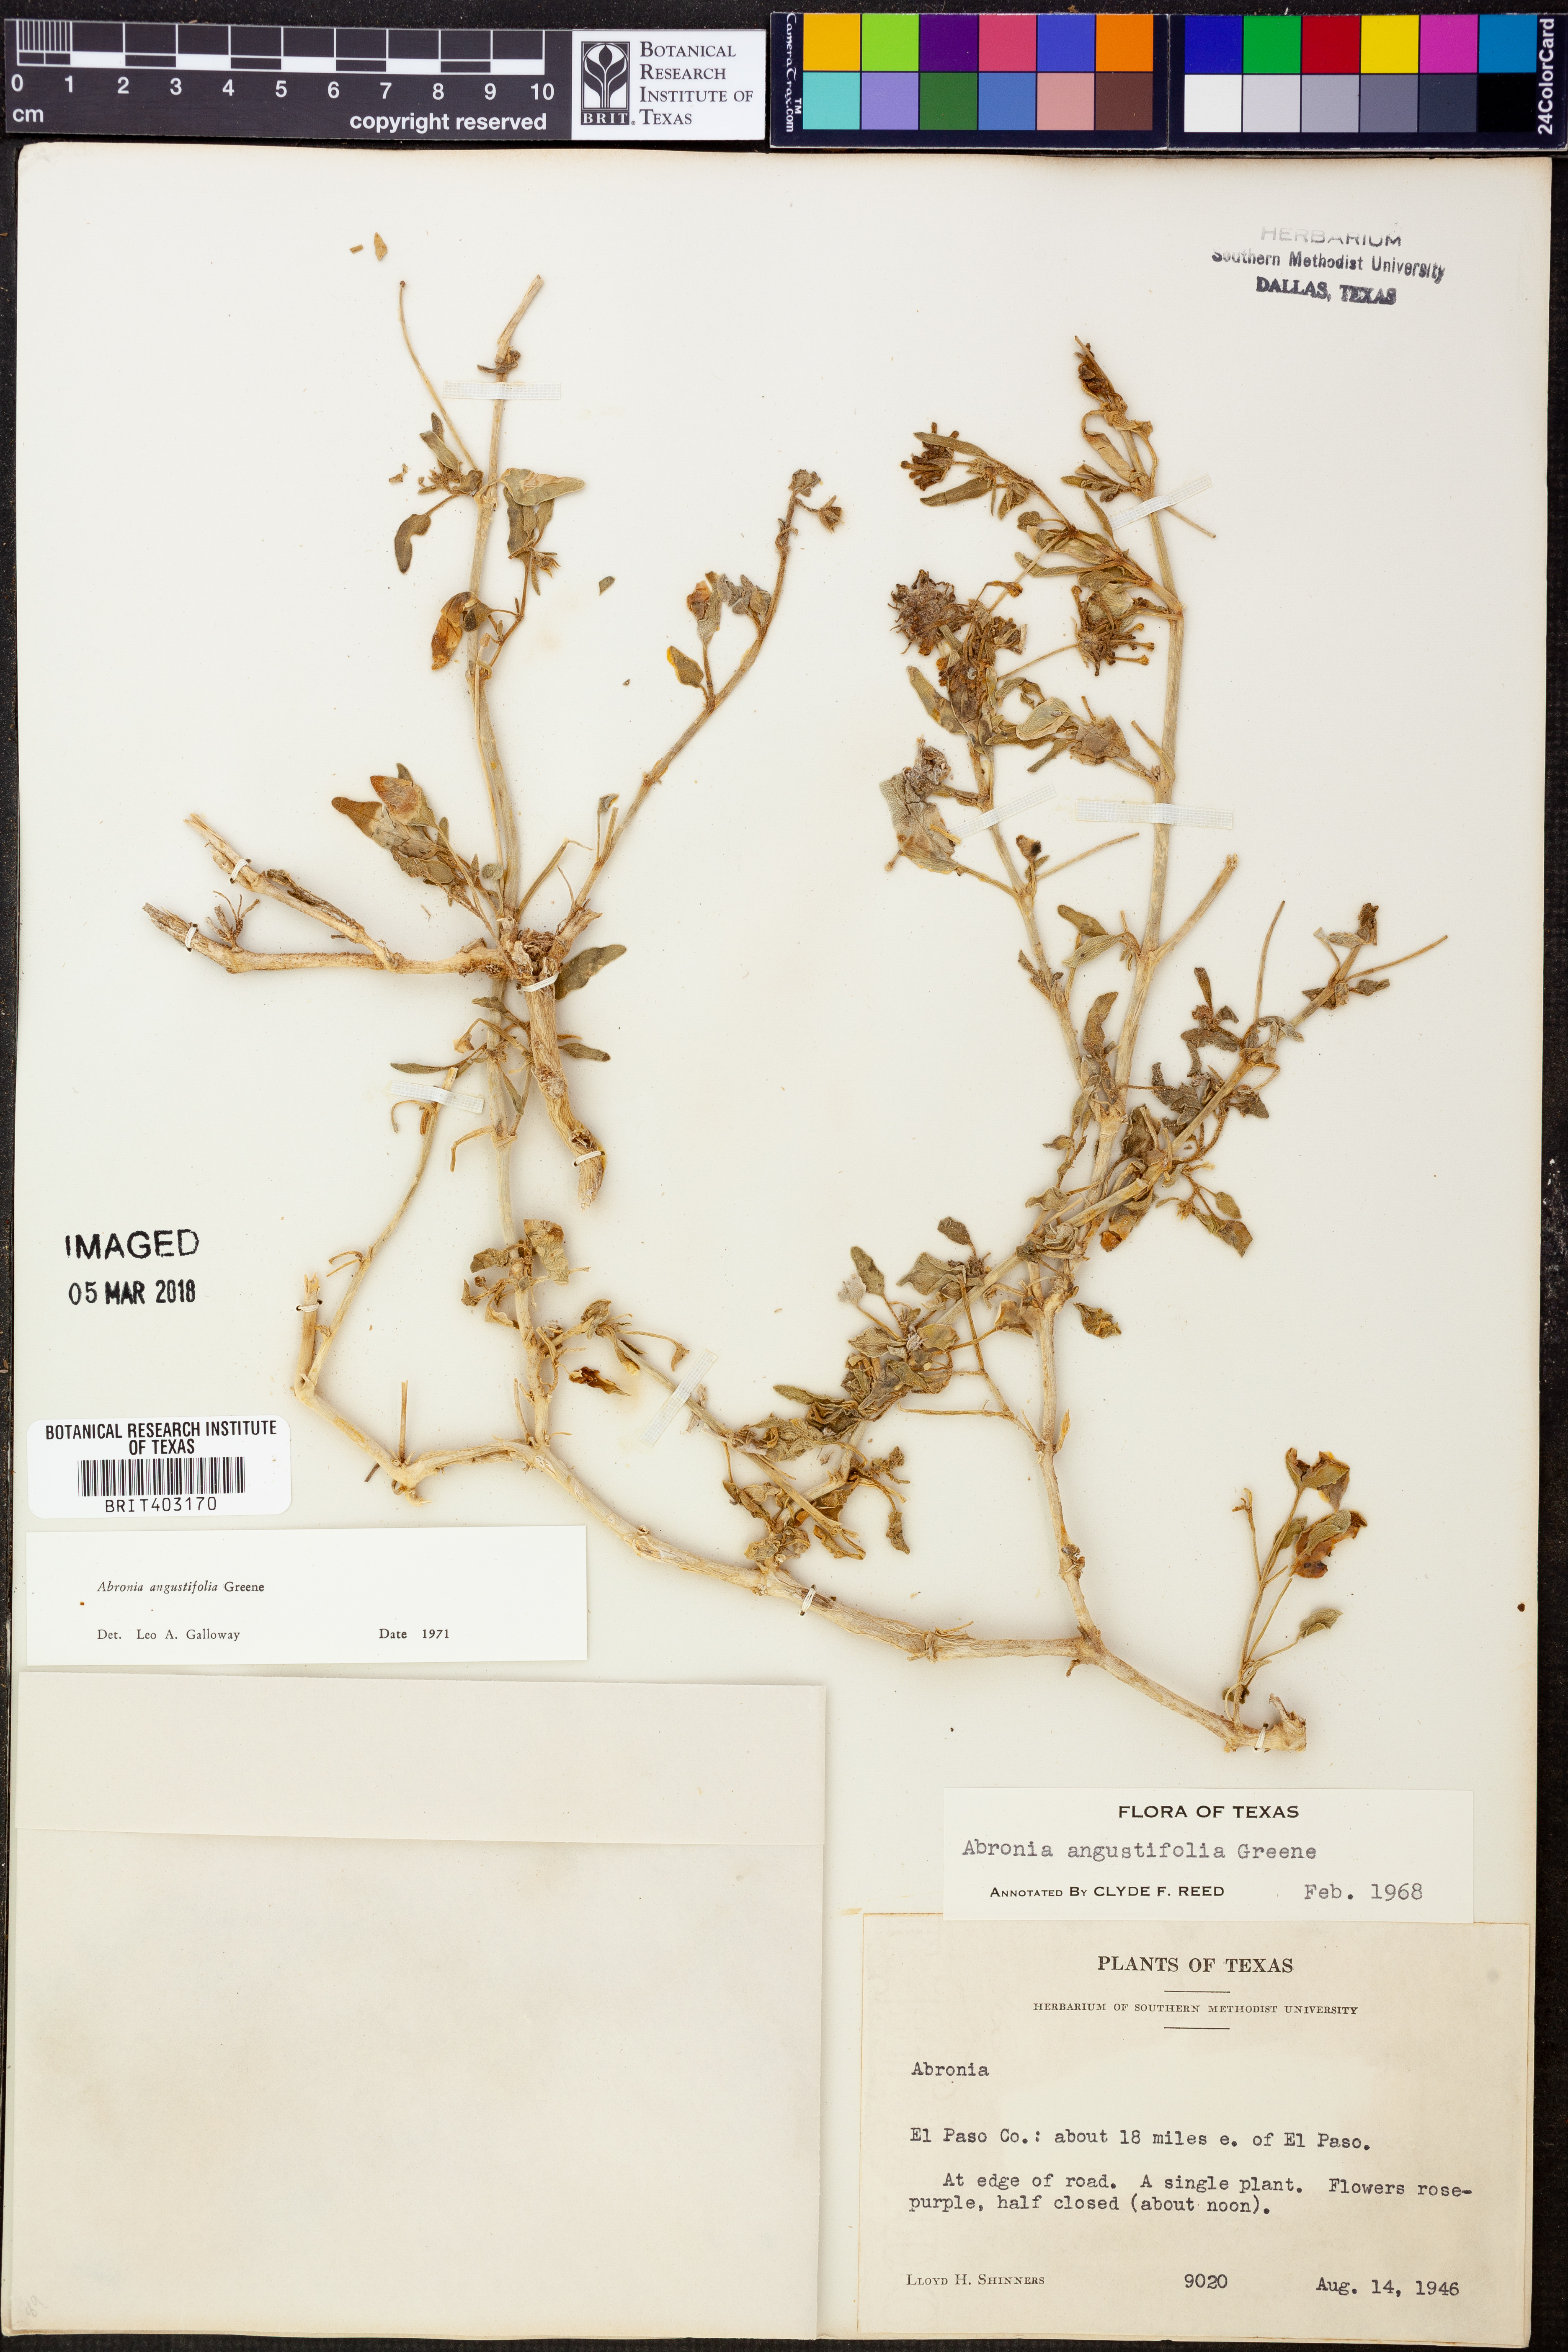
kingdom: Plantae
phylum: Tracheophyta
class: Magnoliopsida
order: Caryophyllales
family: Nyctaginaceae
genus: Abronia
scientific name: Abronia angustifolia
